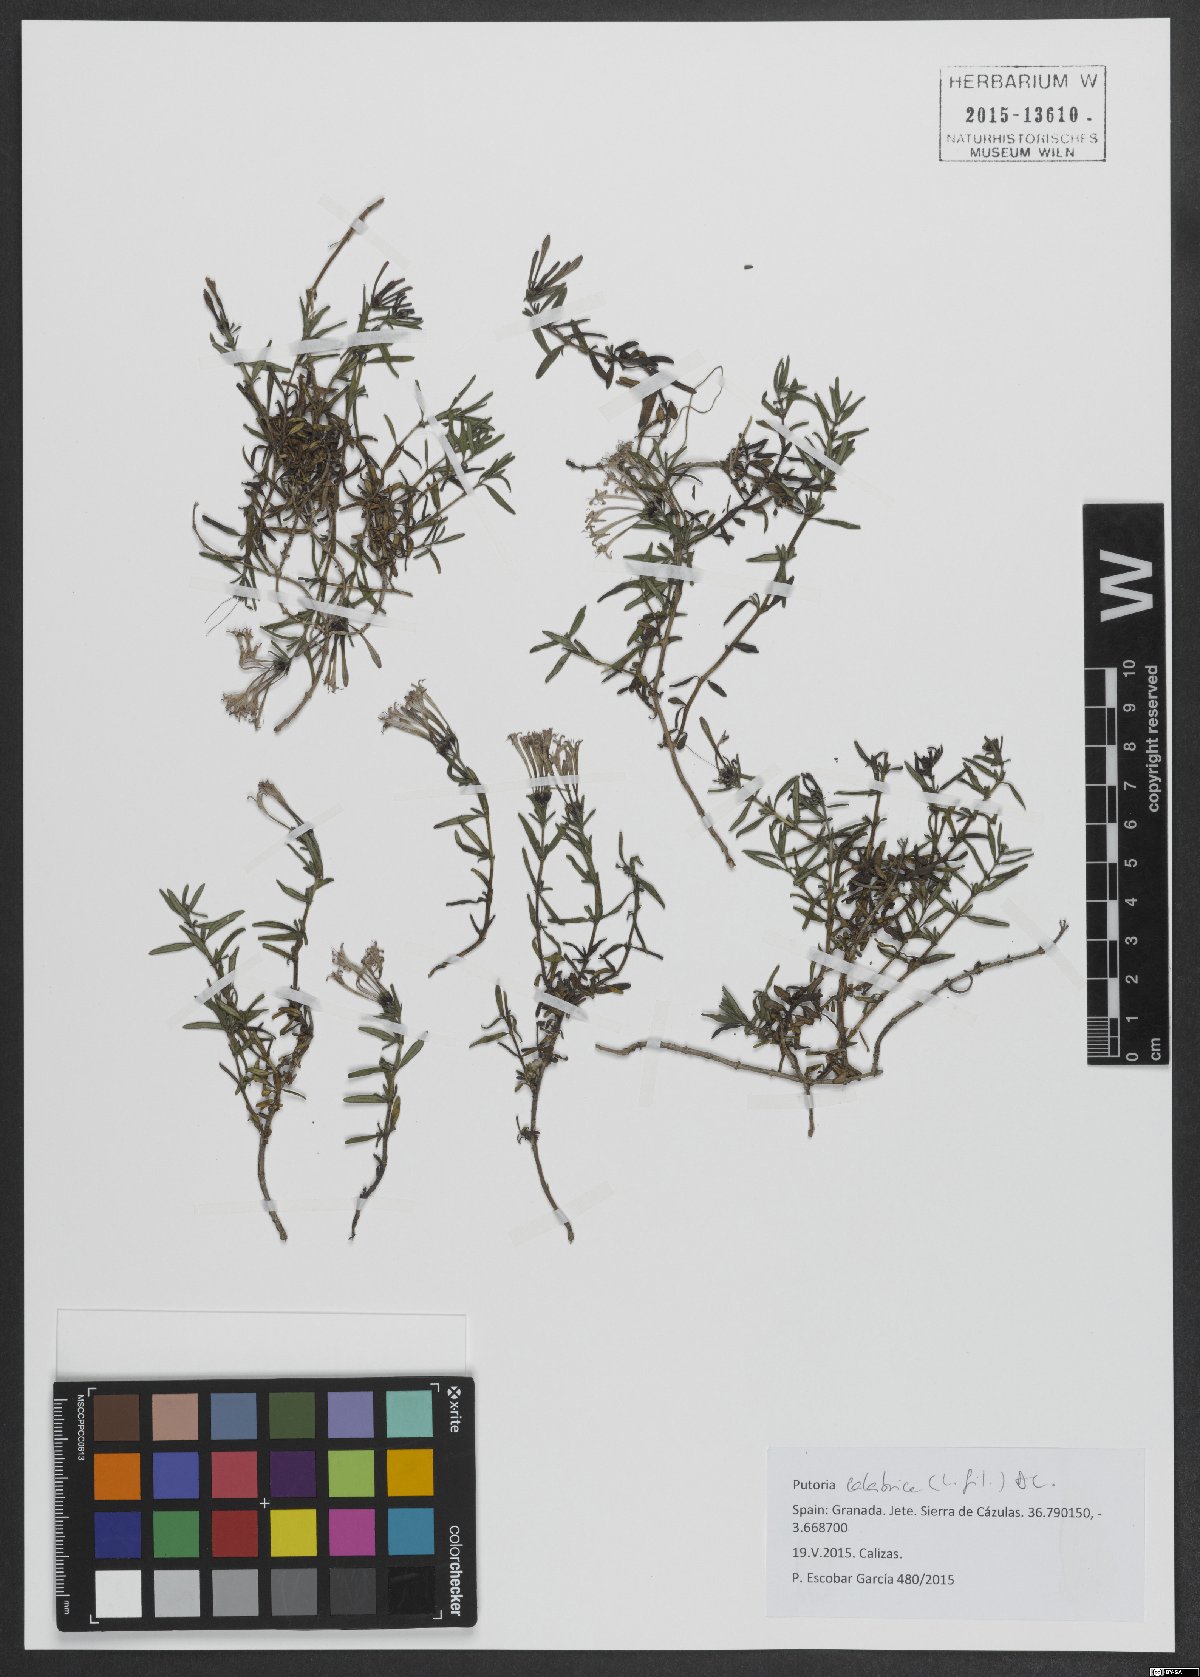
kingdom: Plantae
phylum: Tracheophyta
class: Magnoliopsida
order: Gentianales
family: Rubiaceae
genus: Plocama
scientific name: Plocama calabrica
